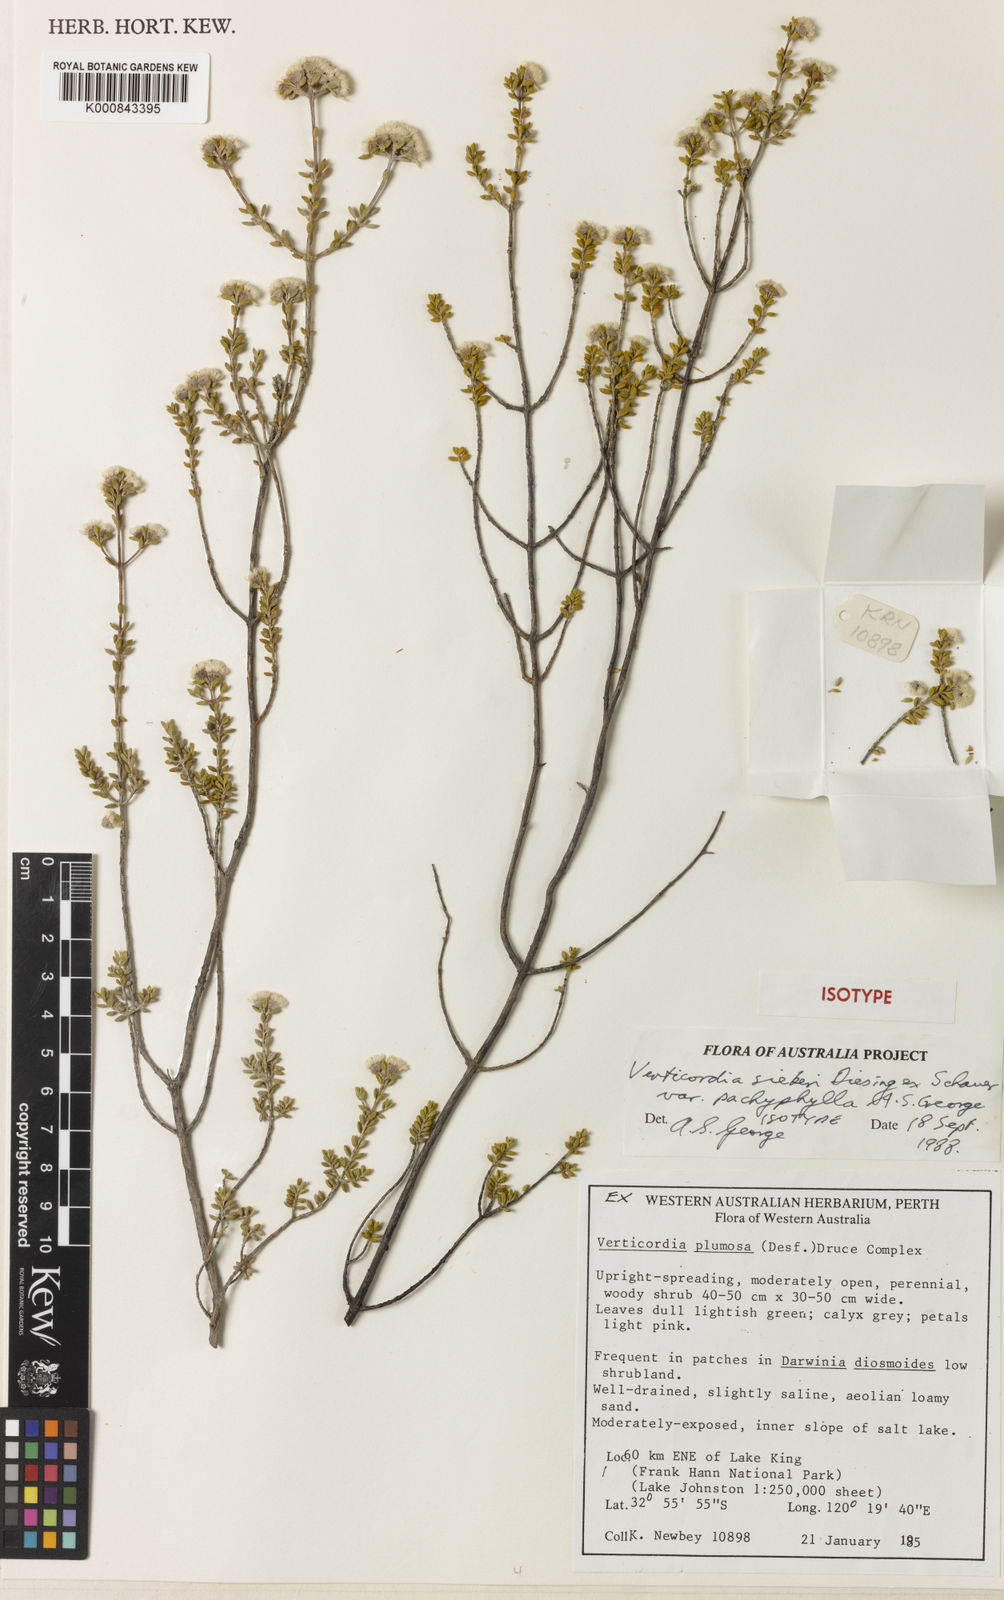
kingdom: Plantae
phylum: Tracheophyta
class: Magnoliopsida
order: Myrtales
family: Myrtaceae
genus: Verticordia
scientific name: Verticordia sieberi
